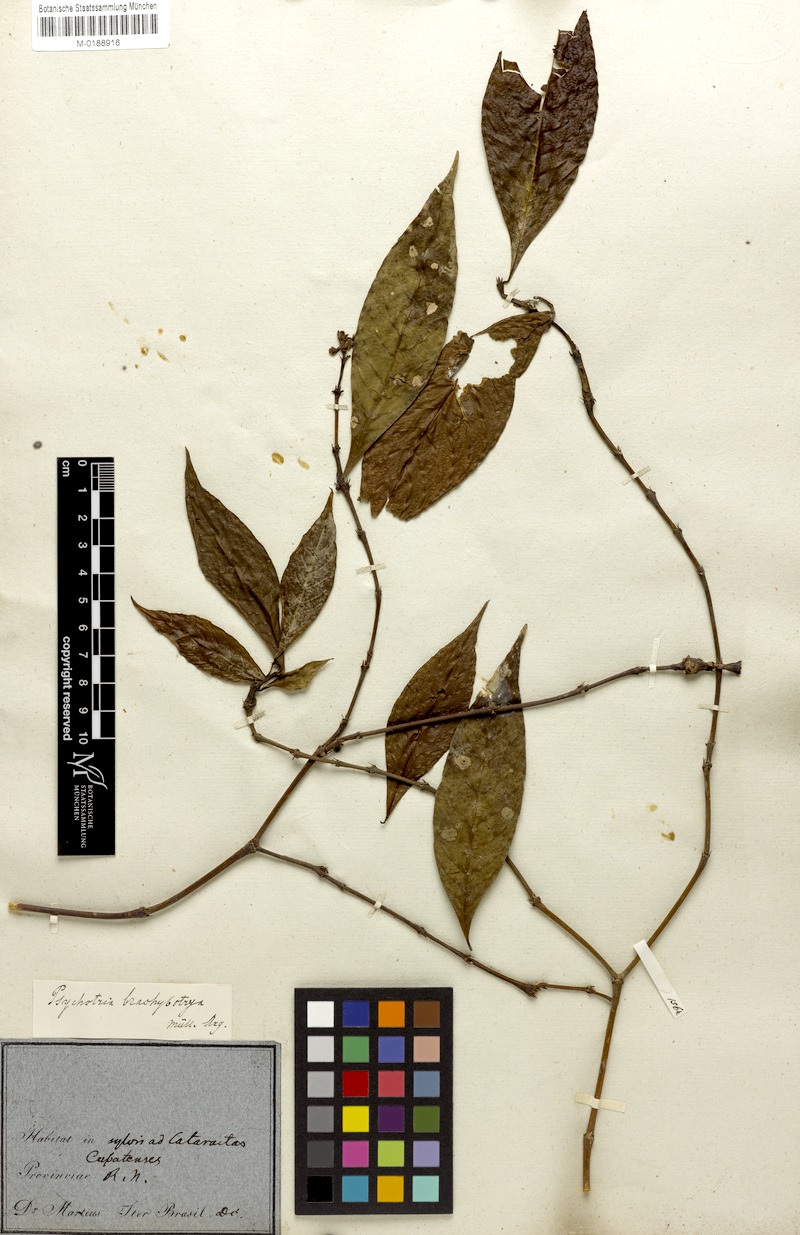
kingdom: Plantae
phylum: Tracheophyta
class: Magnoliopsida
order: Gentianales
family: Rubiaceae
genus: Palicourea
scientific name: Palicourea gracilenta
